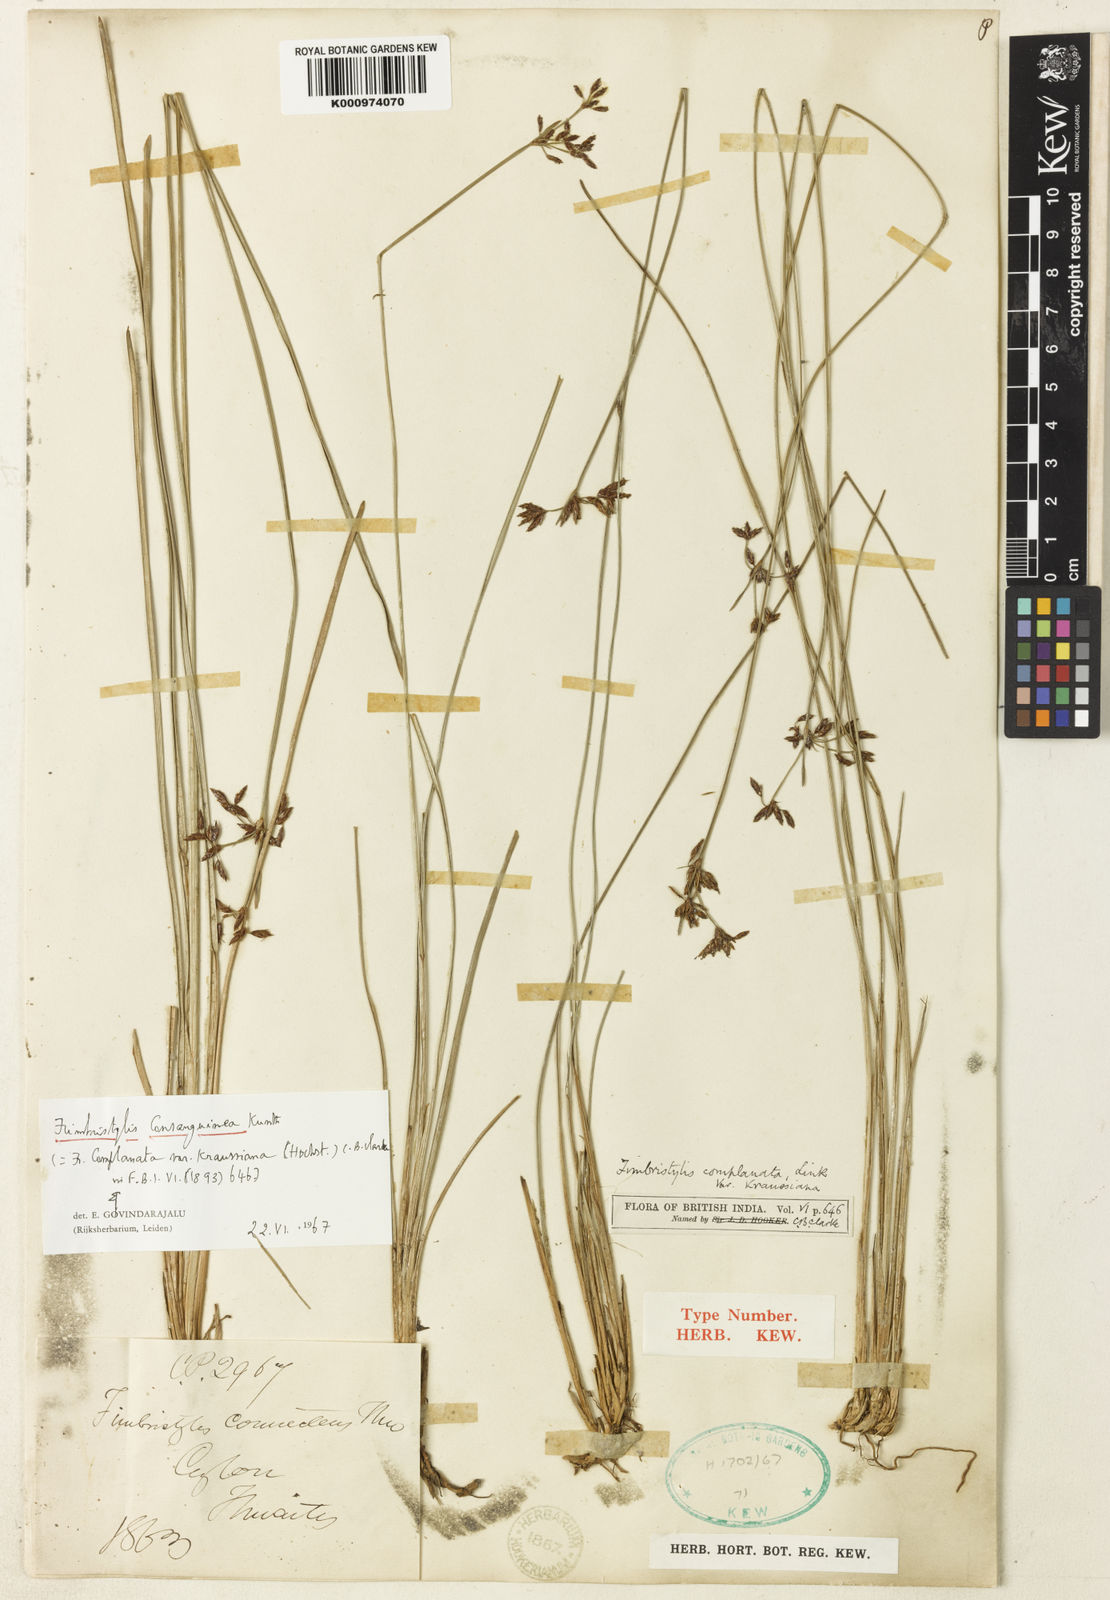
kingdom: Plantae
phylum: Tracheophyta
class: Liliopsida
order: Poales
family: Cyperaceae
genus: Fimbristylis
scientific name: Fimbristylis consanguinea
